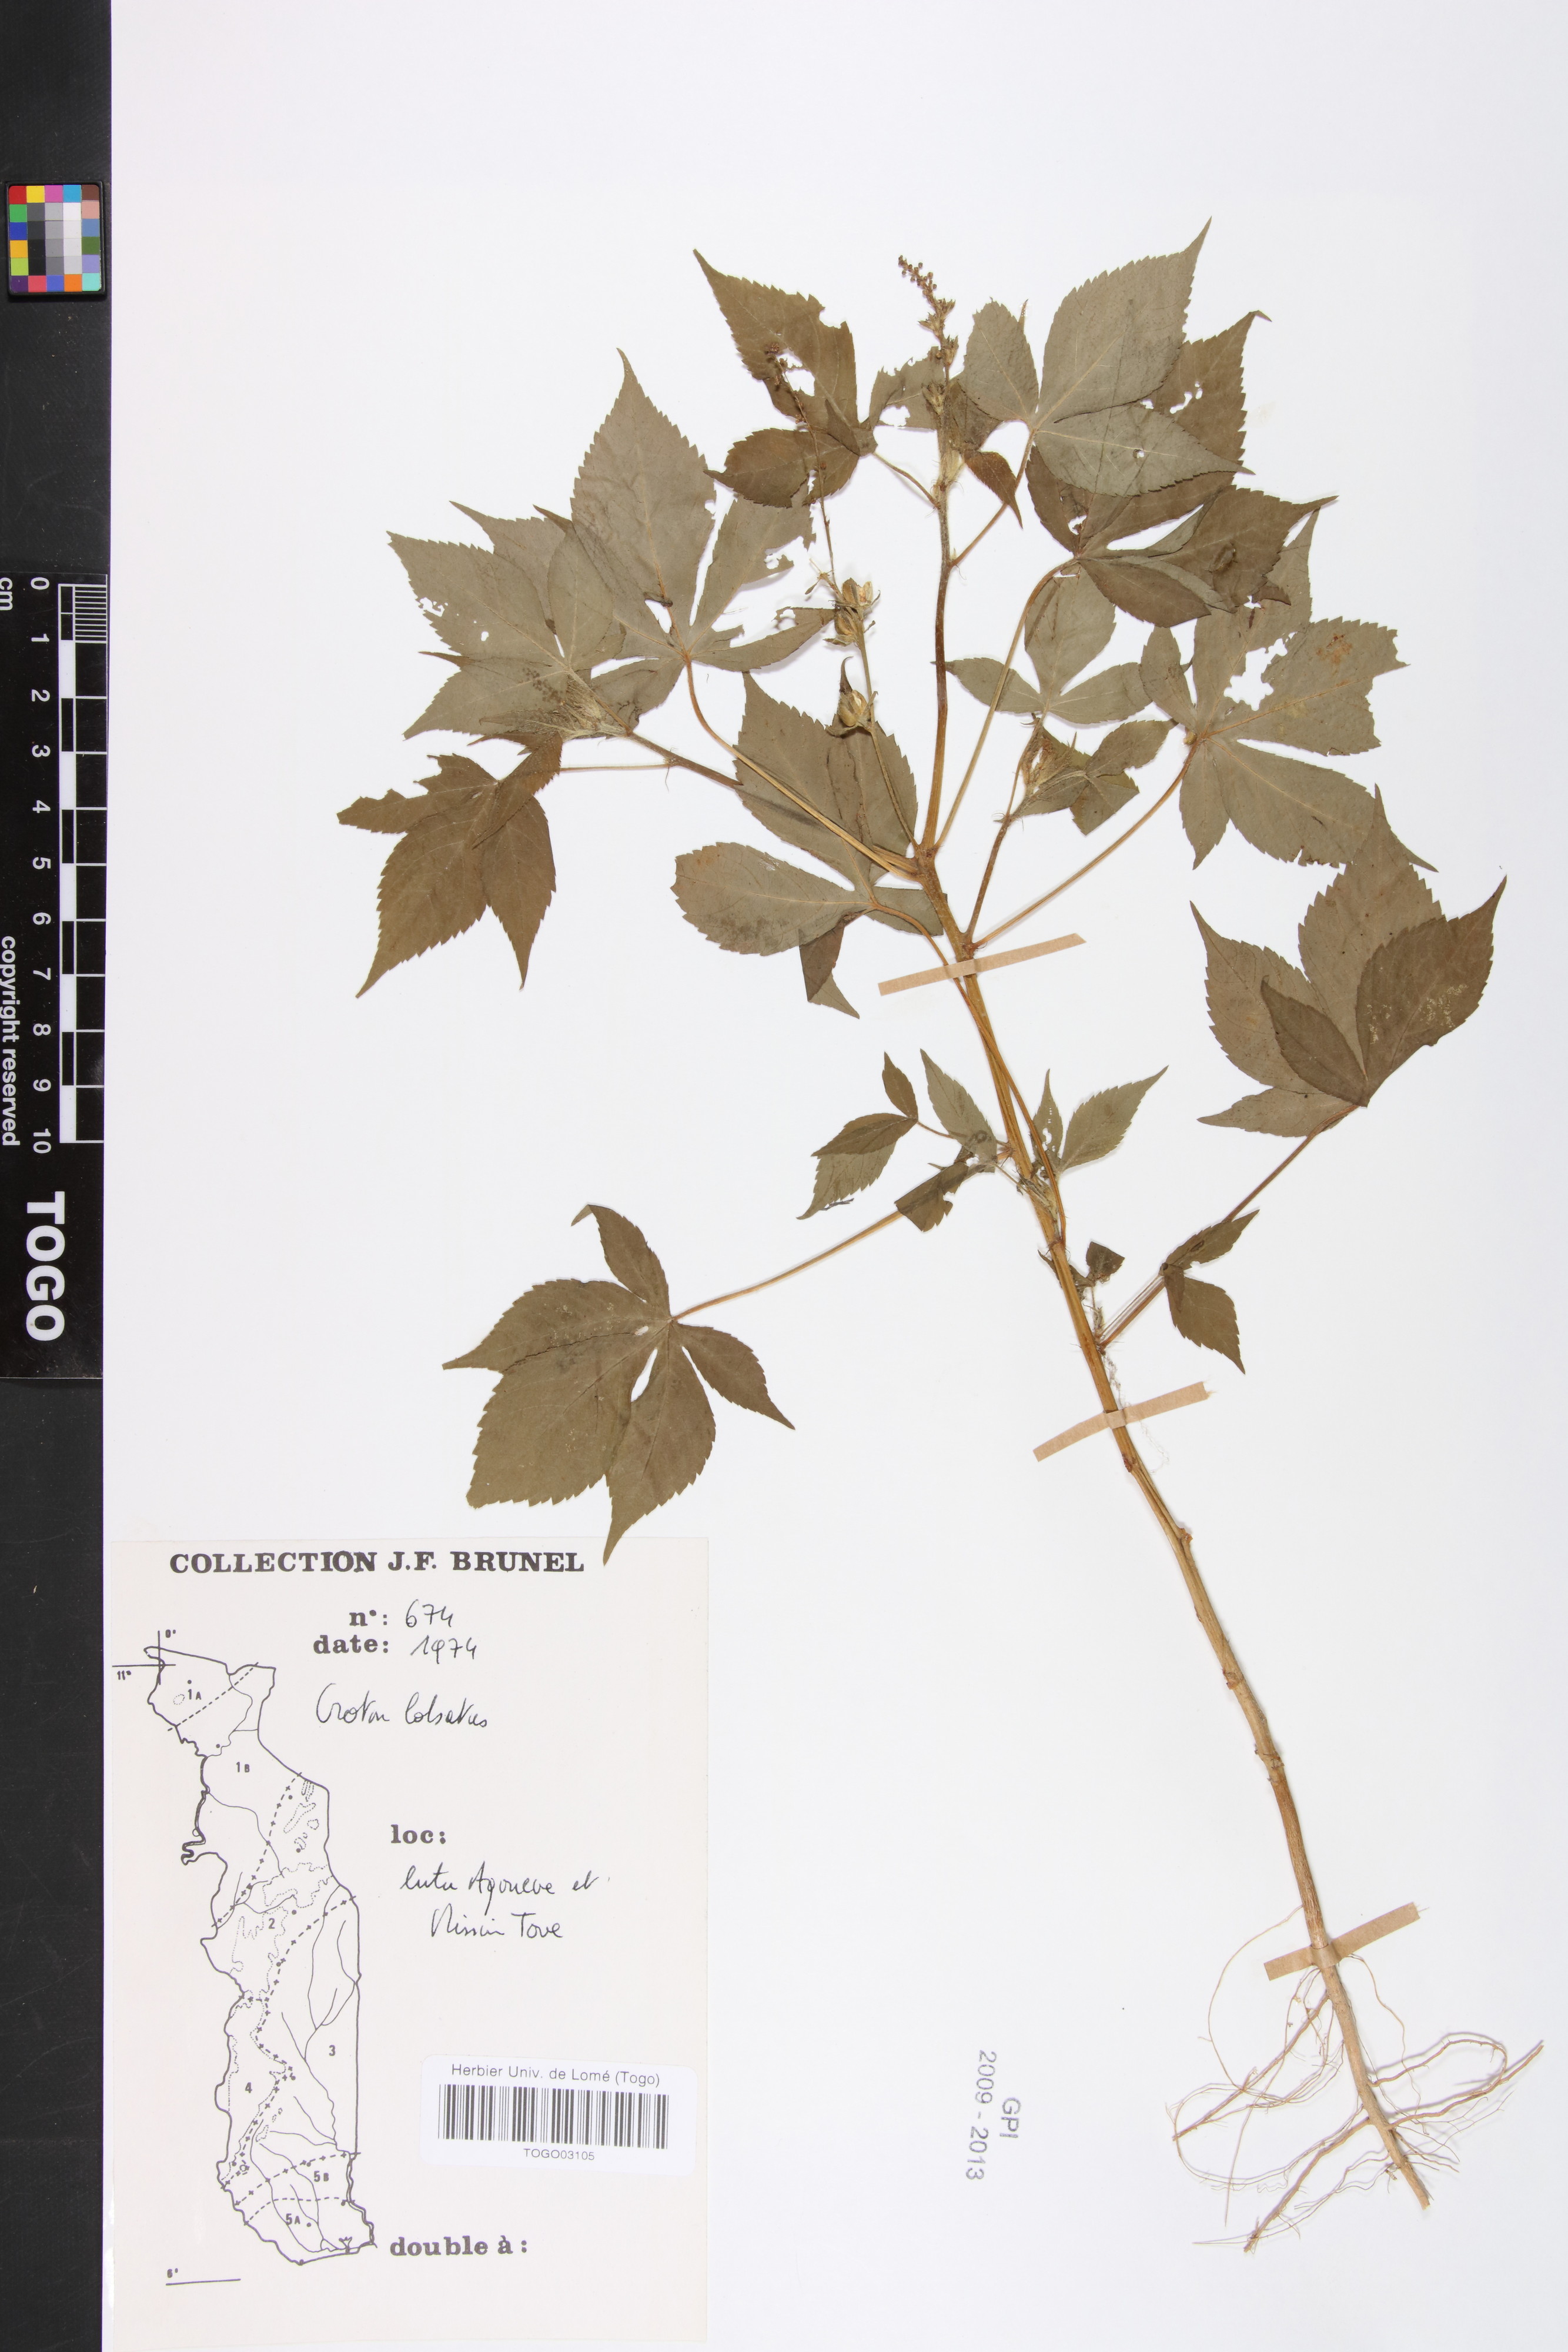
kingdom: Plantae
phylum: Tracheophyta
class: Magnoliopsida
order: Malpighiales
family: Euphorbiaceae
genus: Astraea
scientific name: Astraea lobata
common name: Lobed croton
